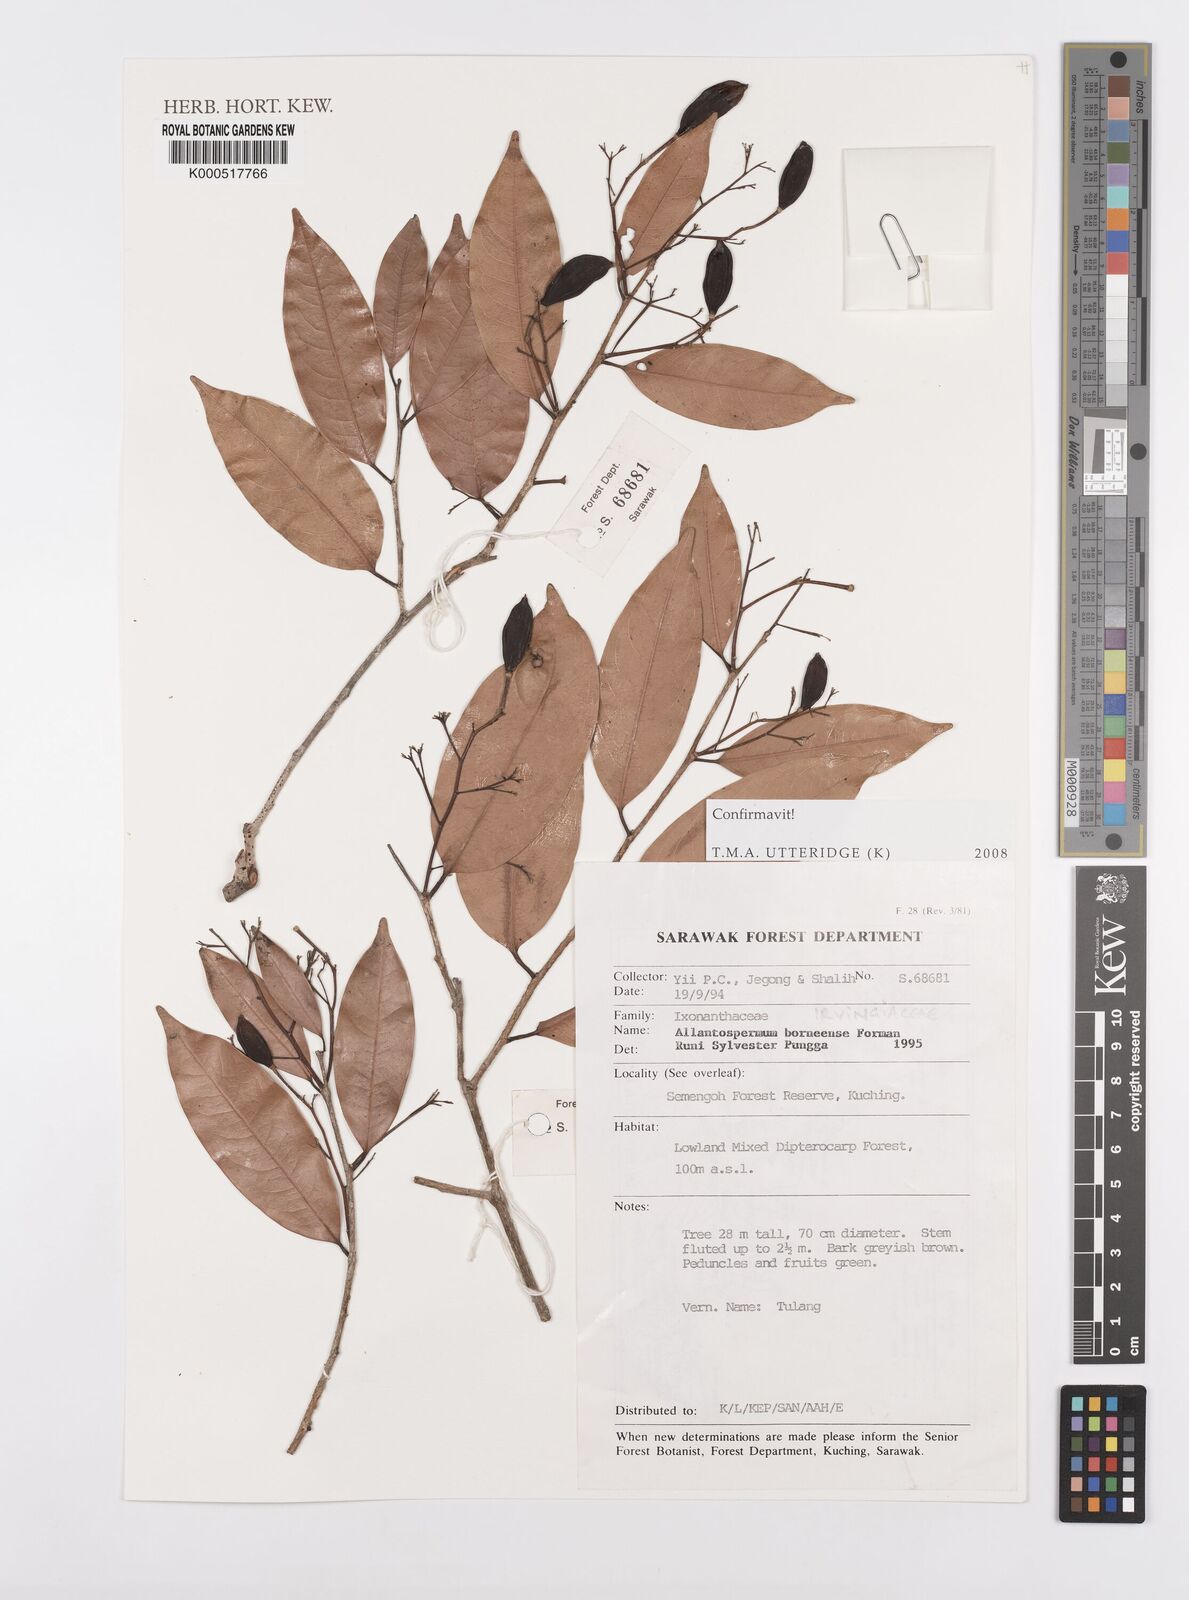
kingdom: Plantae
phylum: Tracheophyta
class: Magnoliopsida
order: Malpighiales
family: Ixonanthaceae
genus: Allantospermum
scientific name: Allantospermum borneense
